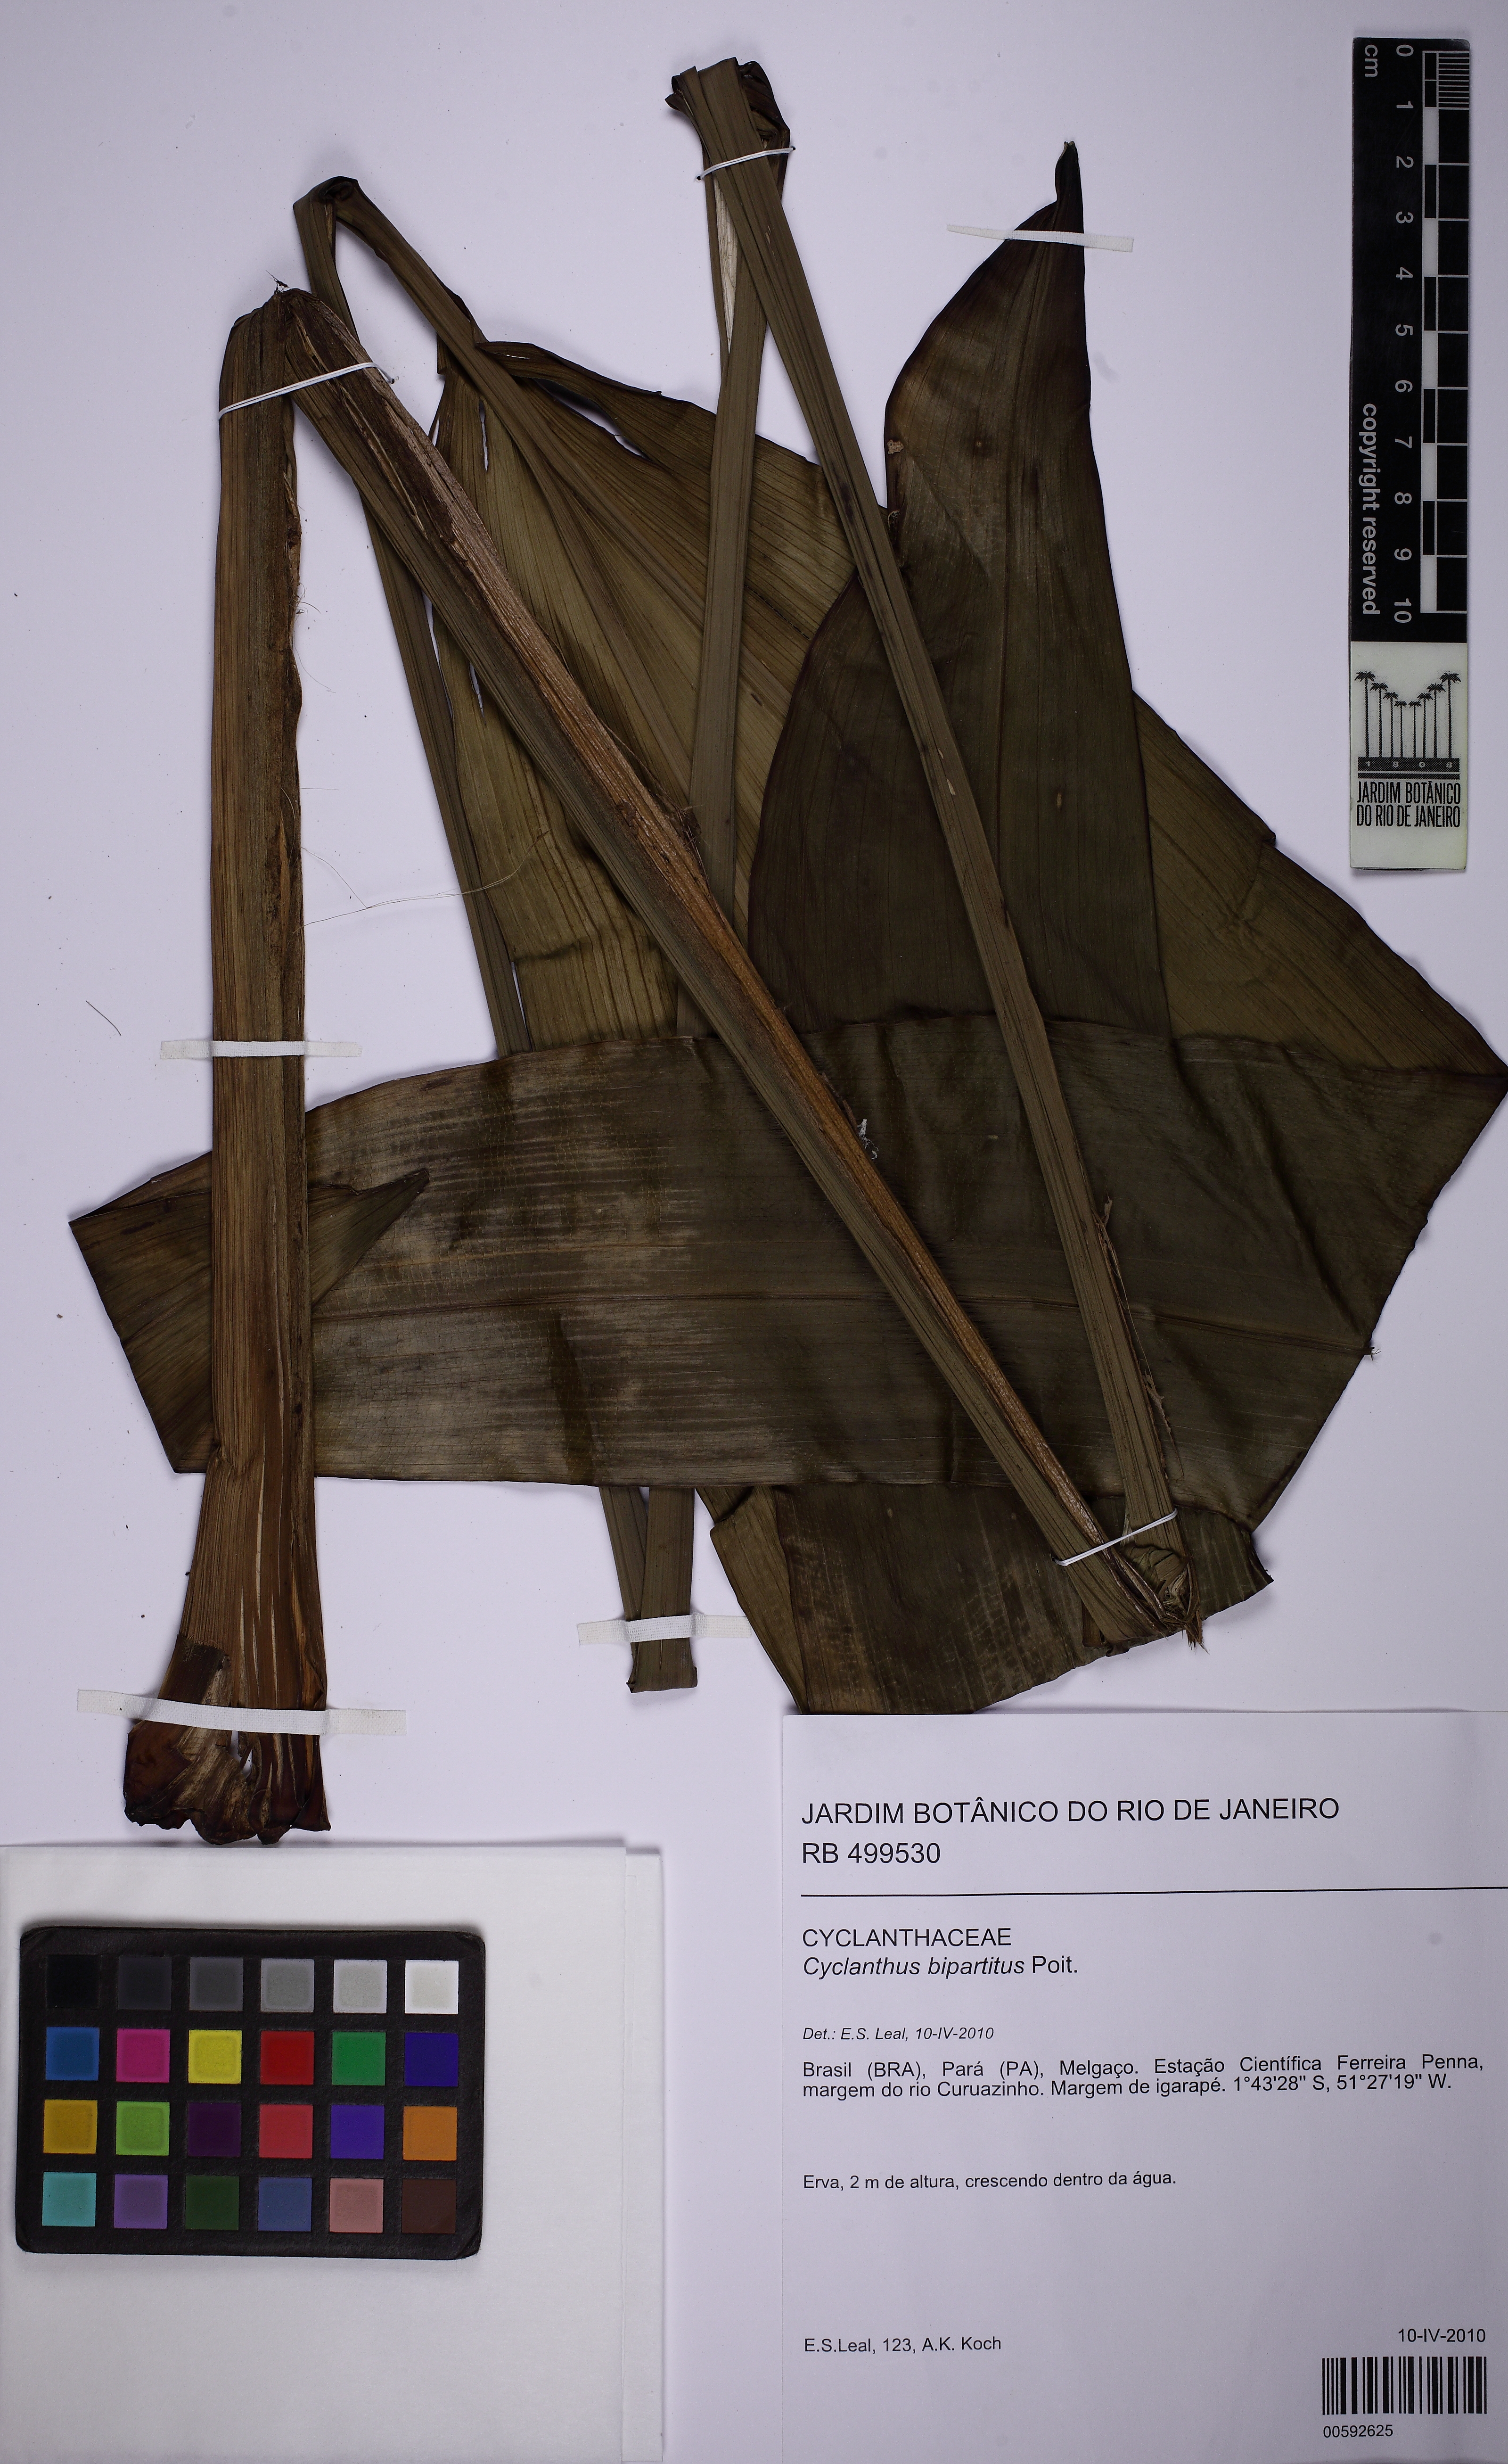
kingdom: Plantae
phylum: Tracheophyta
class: Liliopsida
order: Pandanales
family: Cyclanthaceae
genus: Cyclanthus
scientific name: Cyclanthus bipartitus
